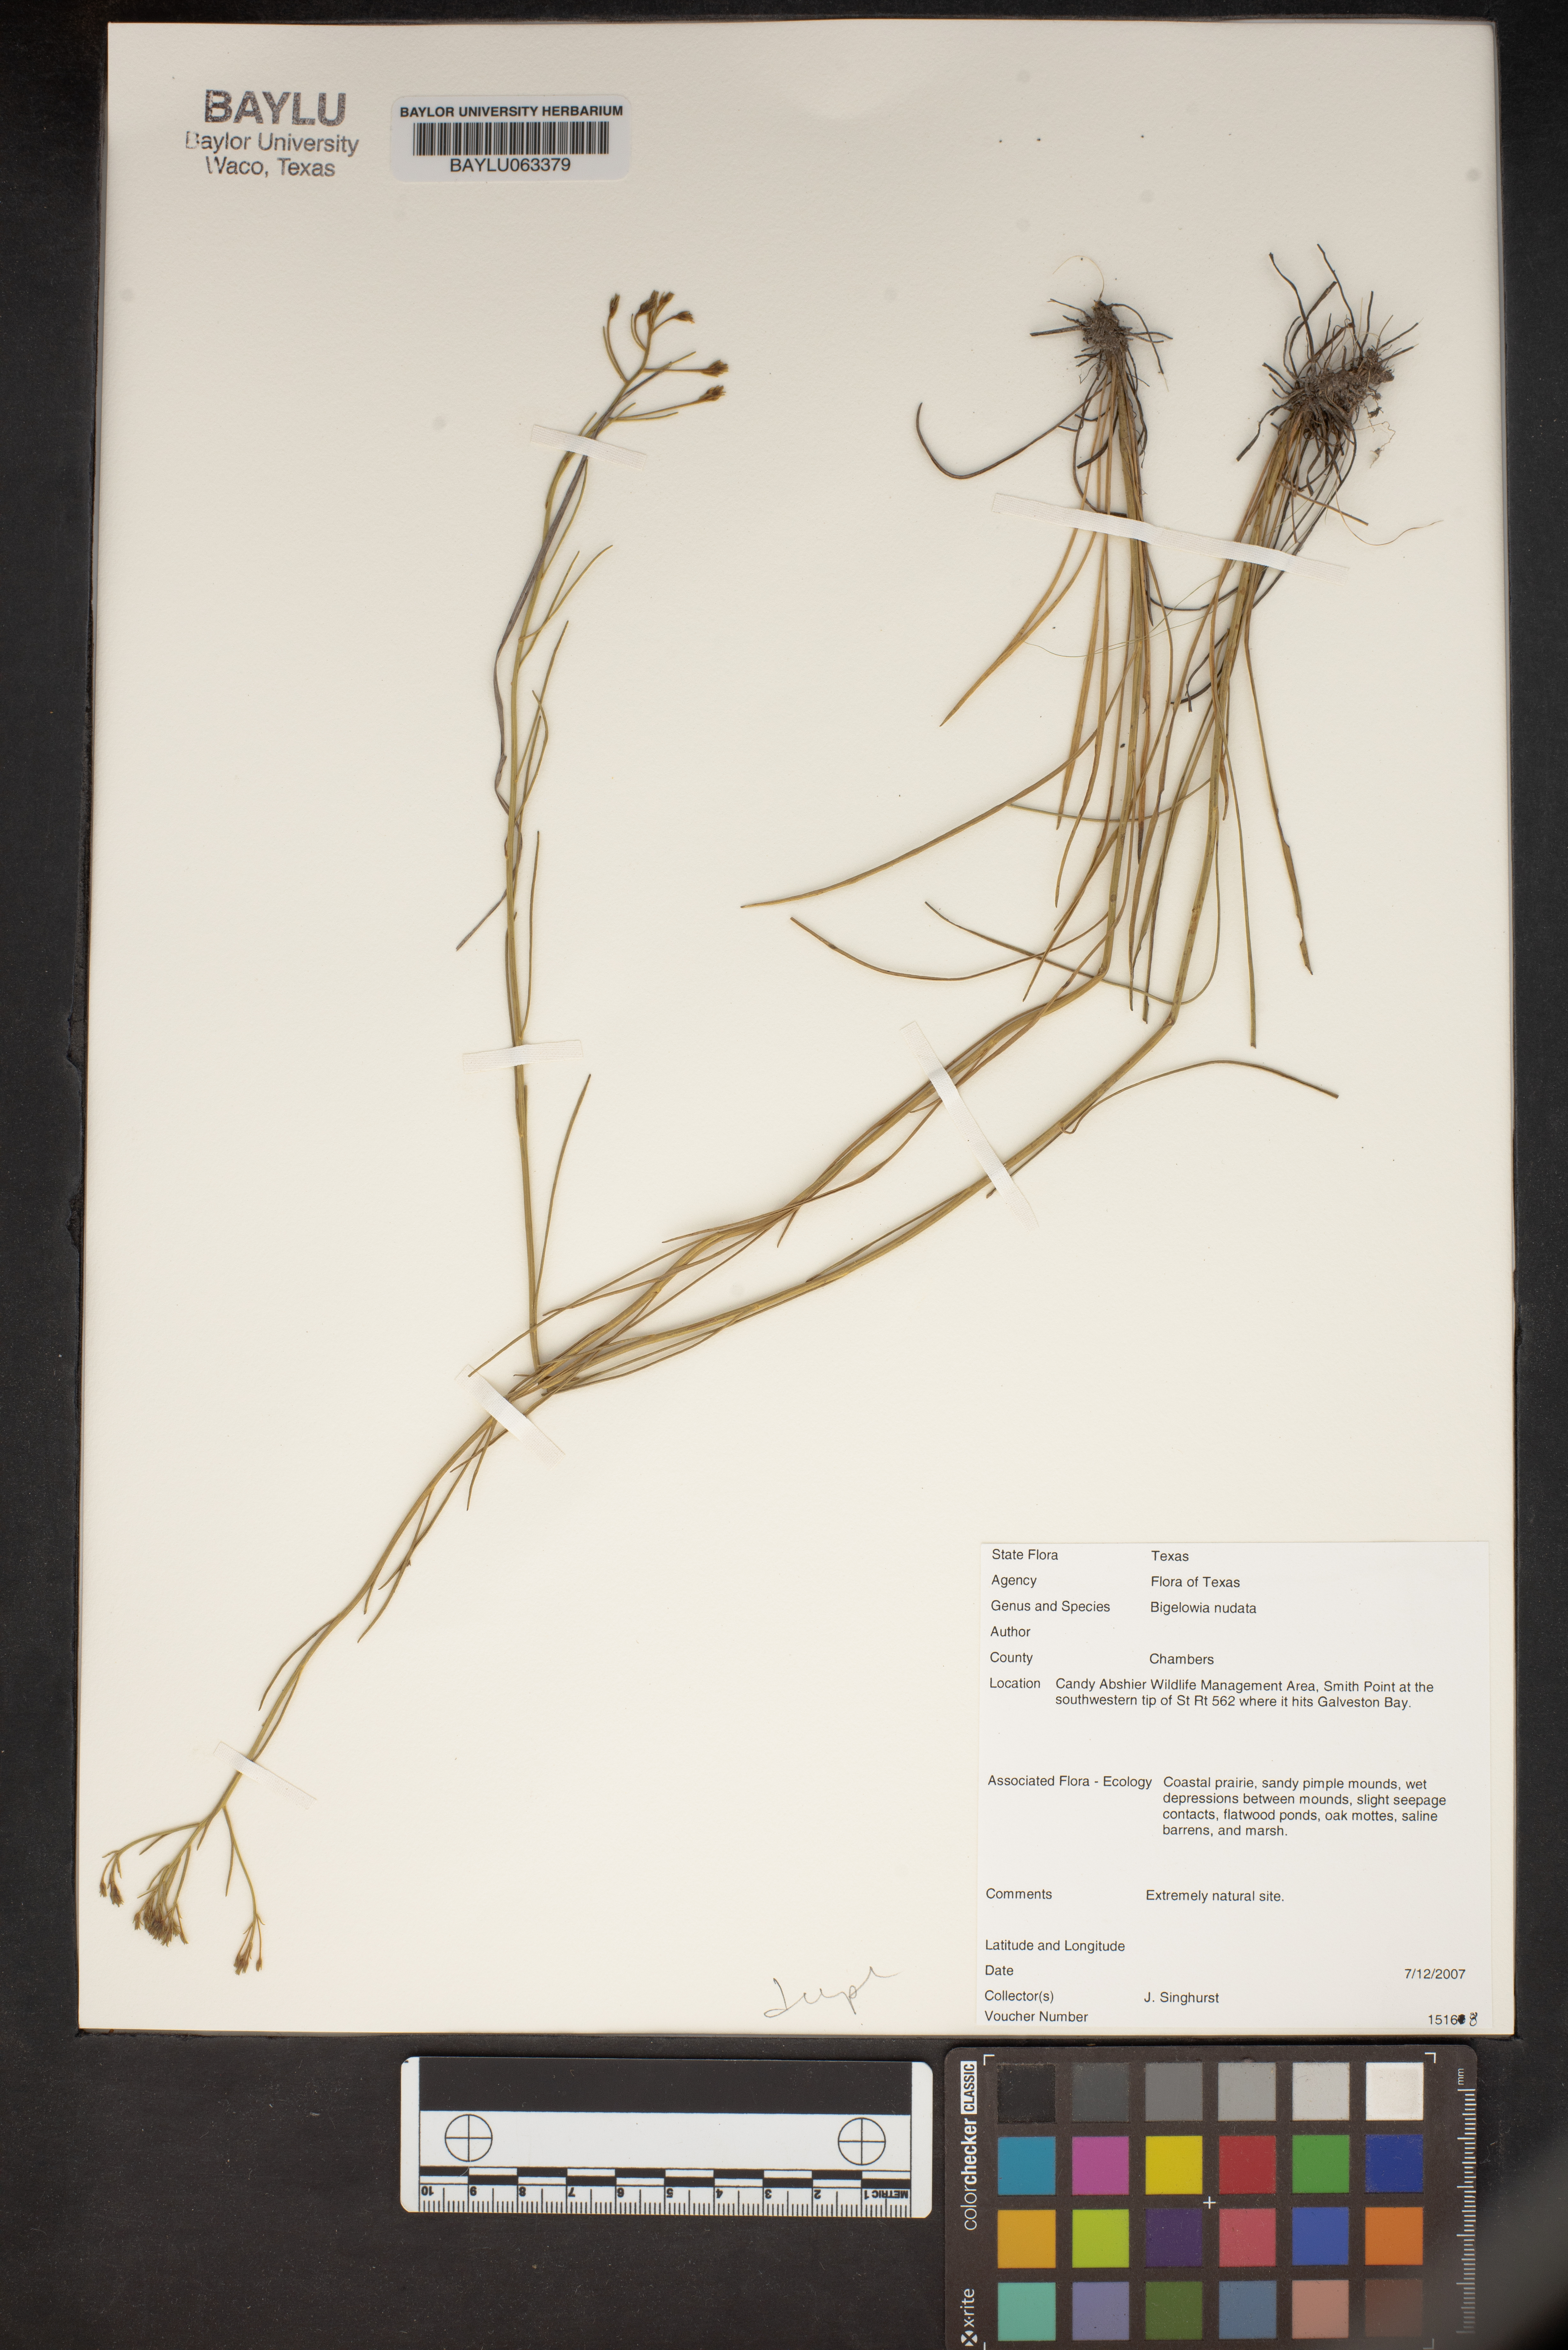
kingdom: Plantae
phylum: Tracheophyta
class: Magnoliopsida
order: Asterales
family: Asteraceae
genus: Bigelowia
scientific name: Bigelowia nudata
